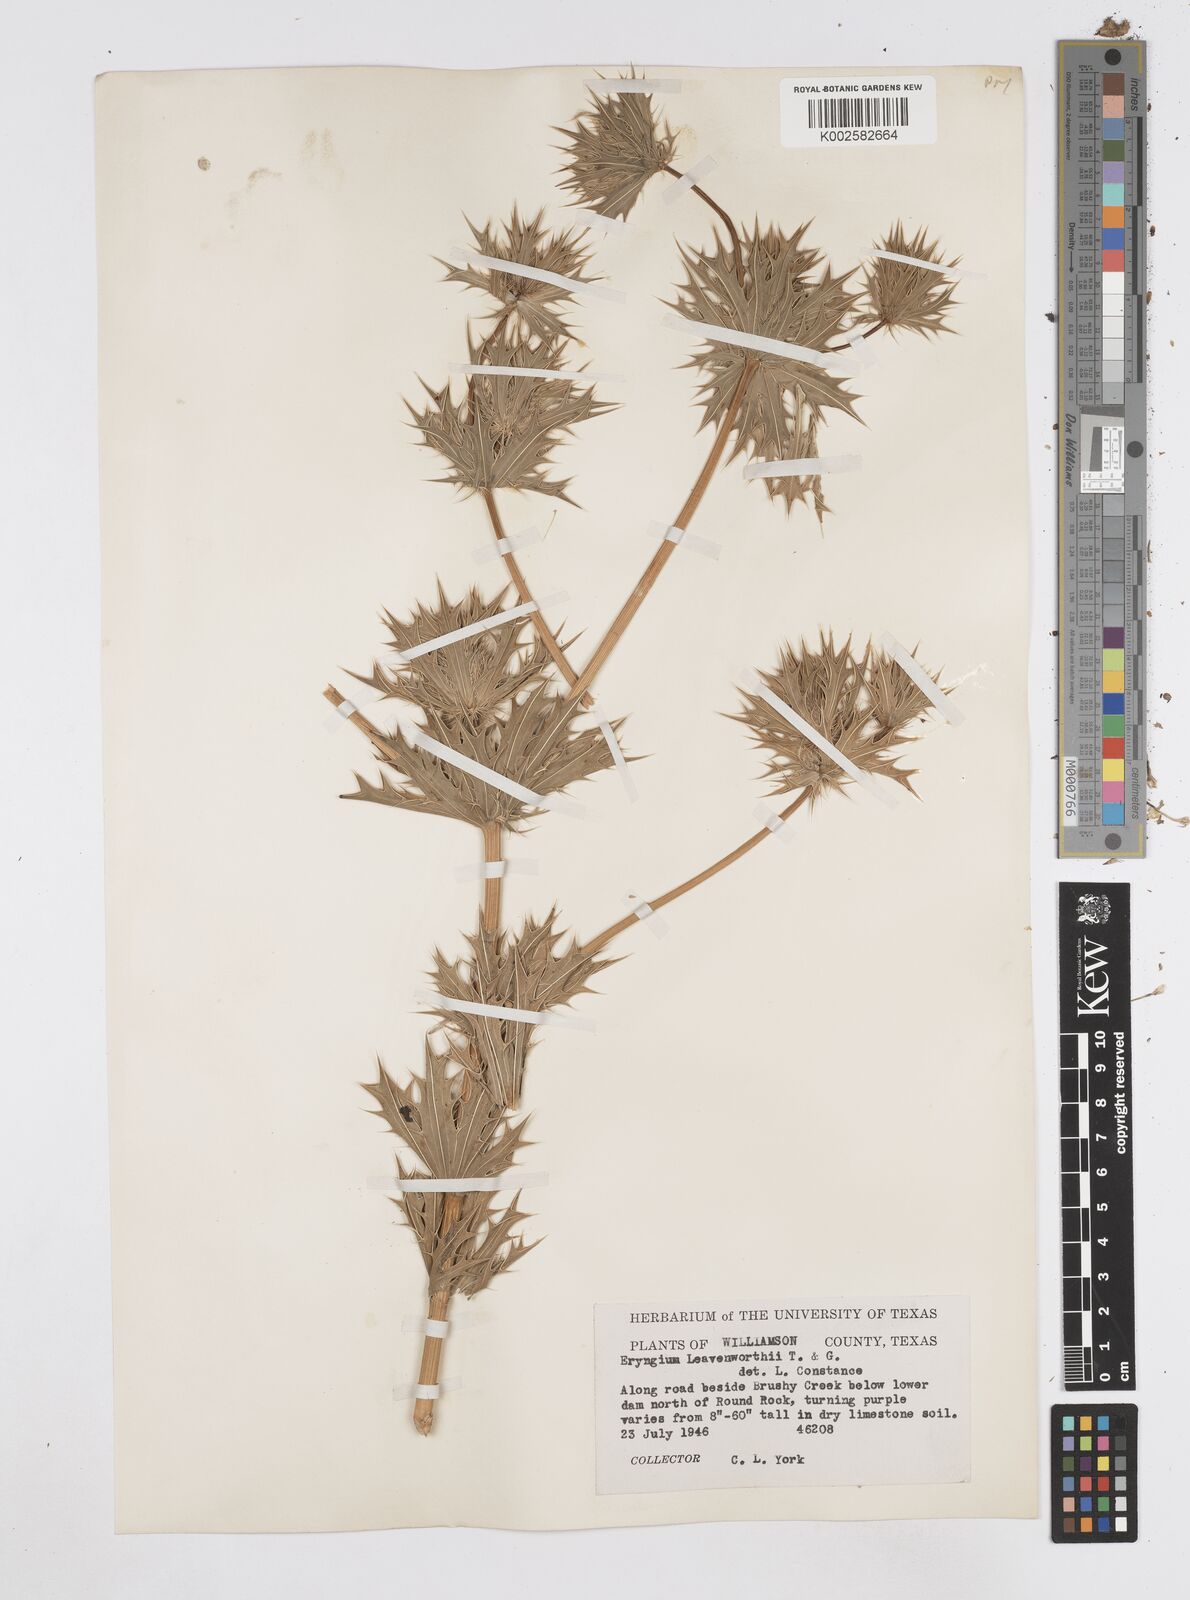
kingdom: Plantae
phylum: Tracheophyta
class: Magnoliopsida
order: Apiales
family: Apiaceae
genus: Eryngium
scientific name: Eryngium leavenworthii
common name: Leavenworth's eryngo
